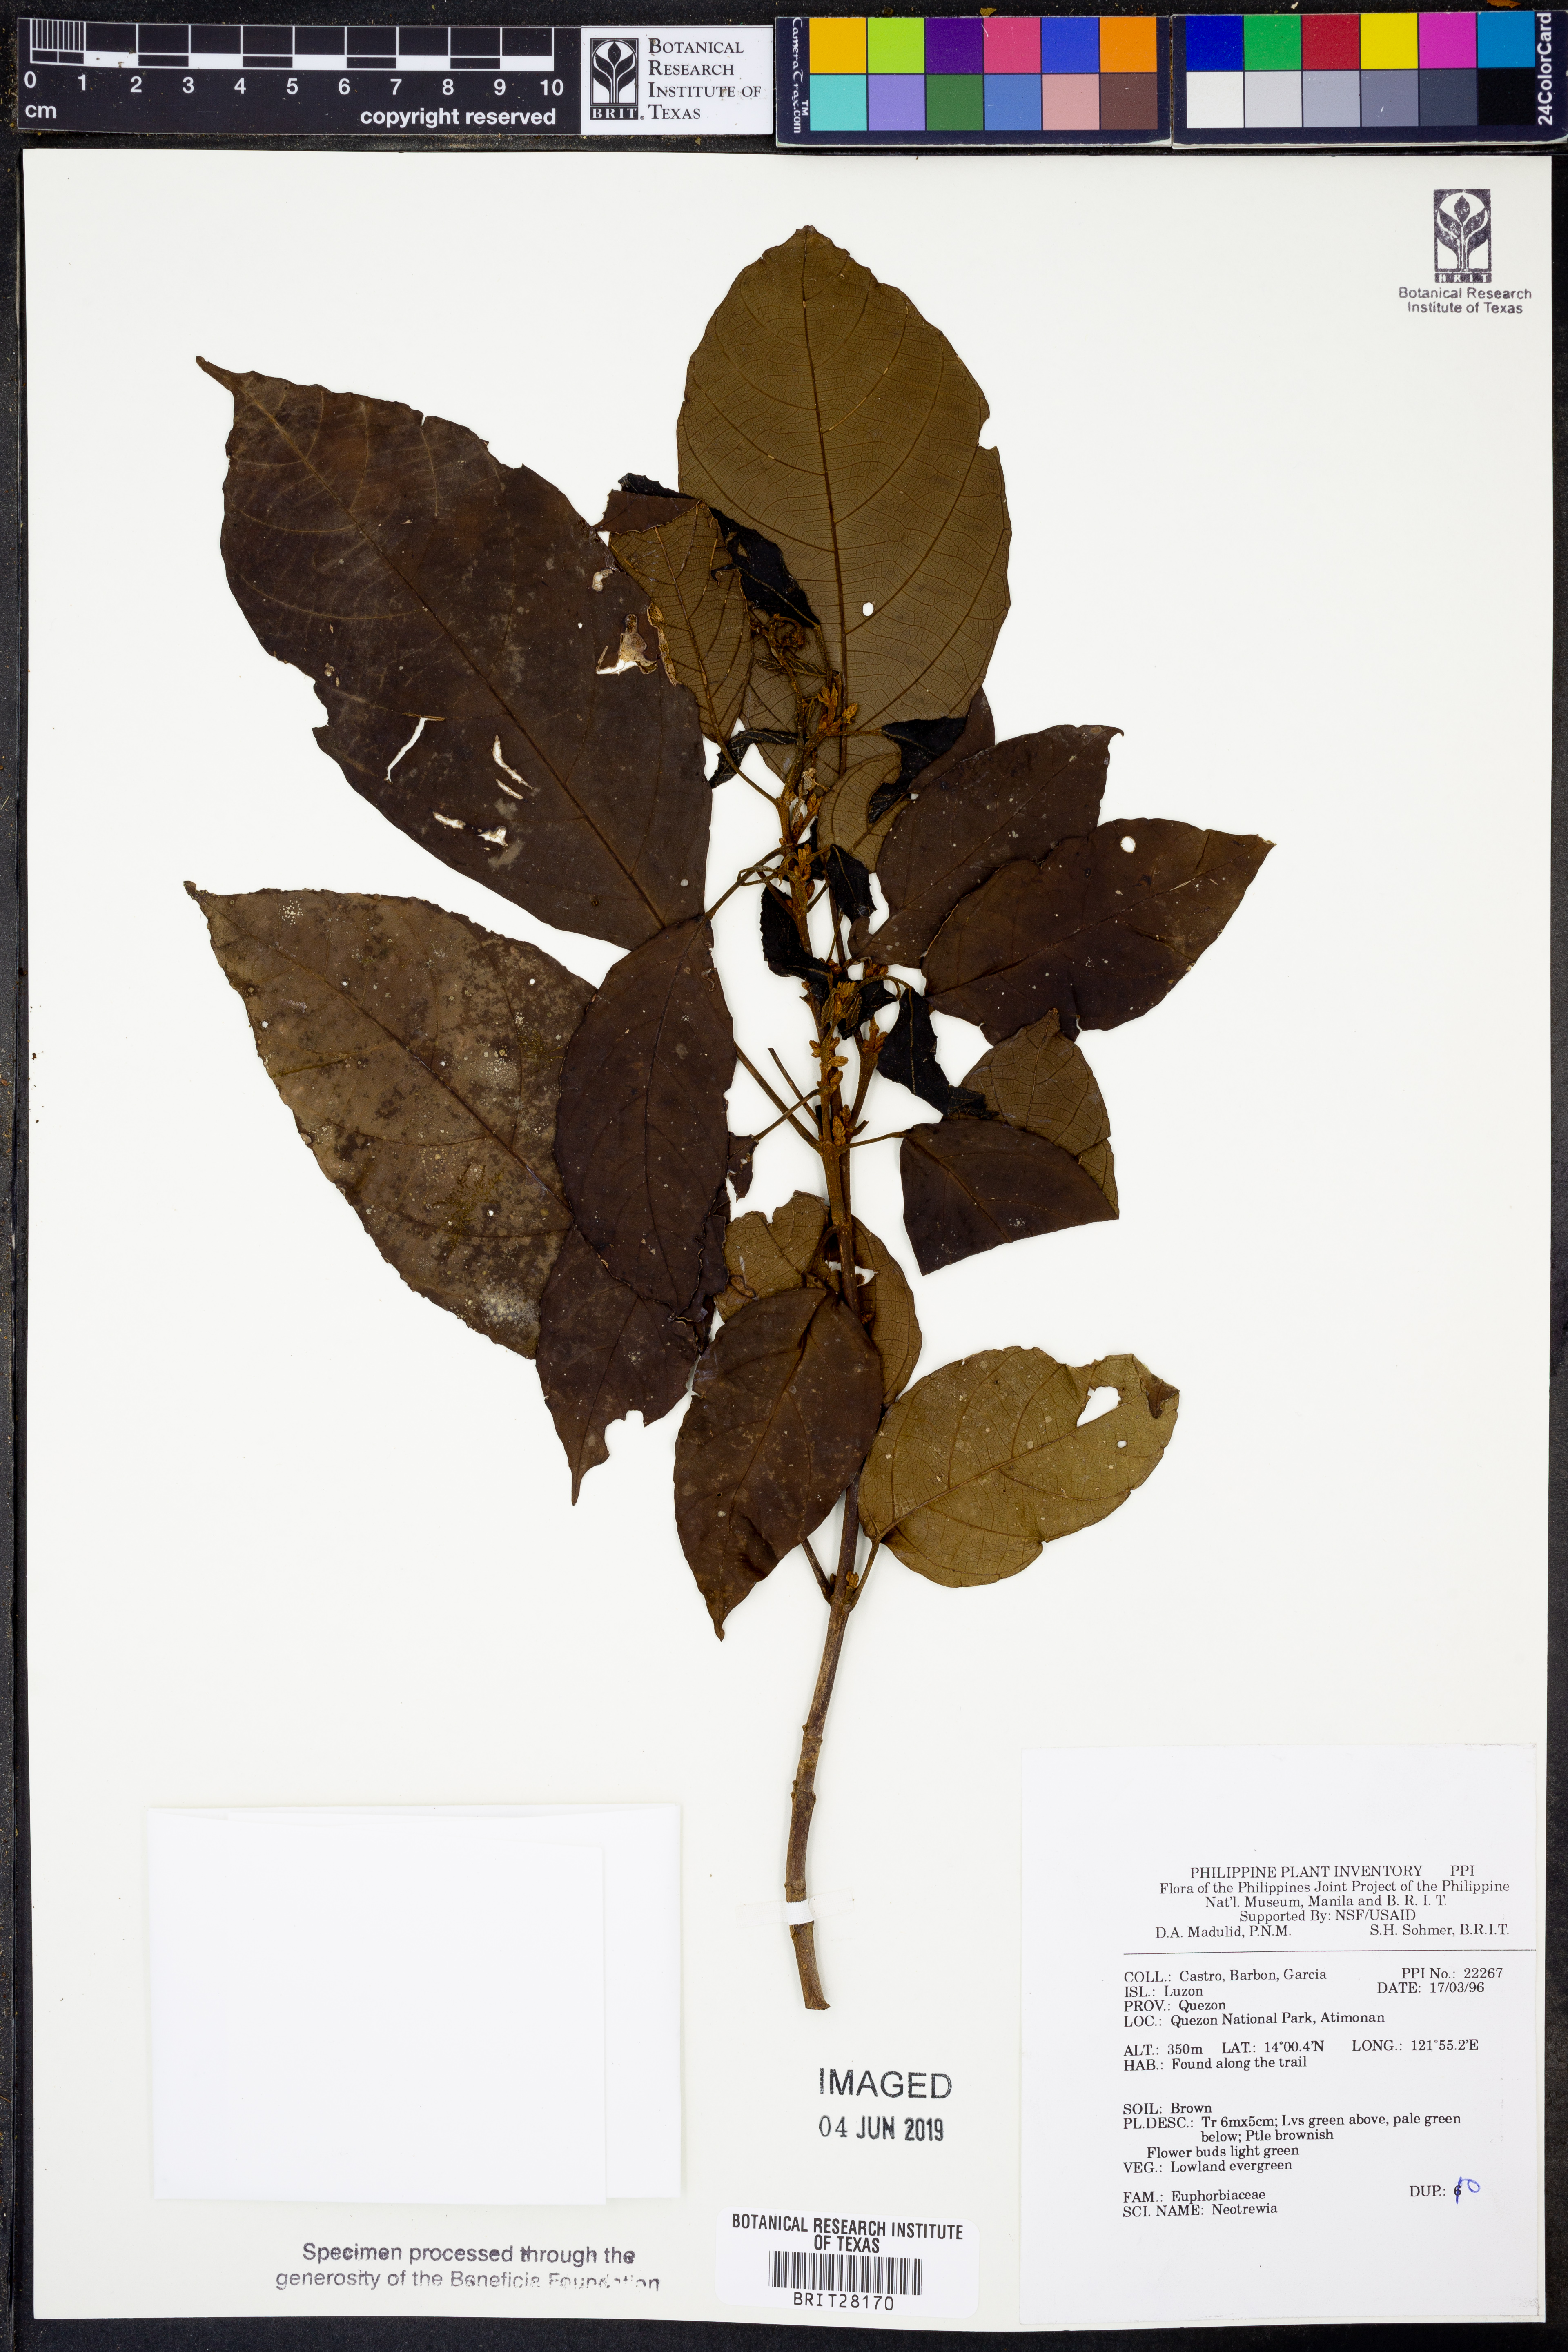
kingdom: Plantae
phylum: Tracheophyta
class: Magnoliopsida
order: Malpighiales
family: Euphorbiaceae
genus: Mallotus
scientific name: Mallotus
